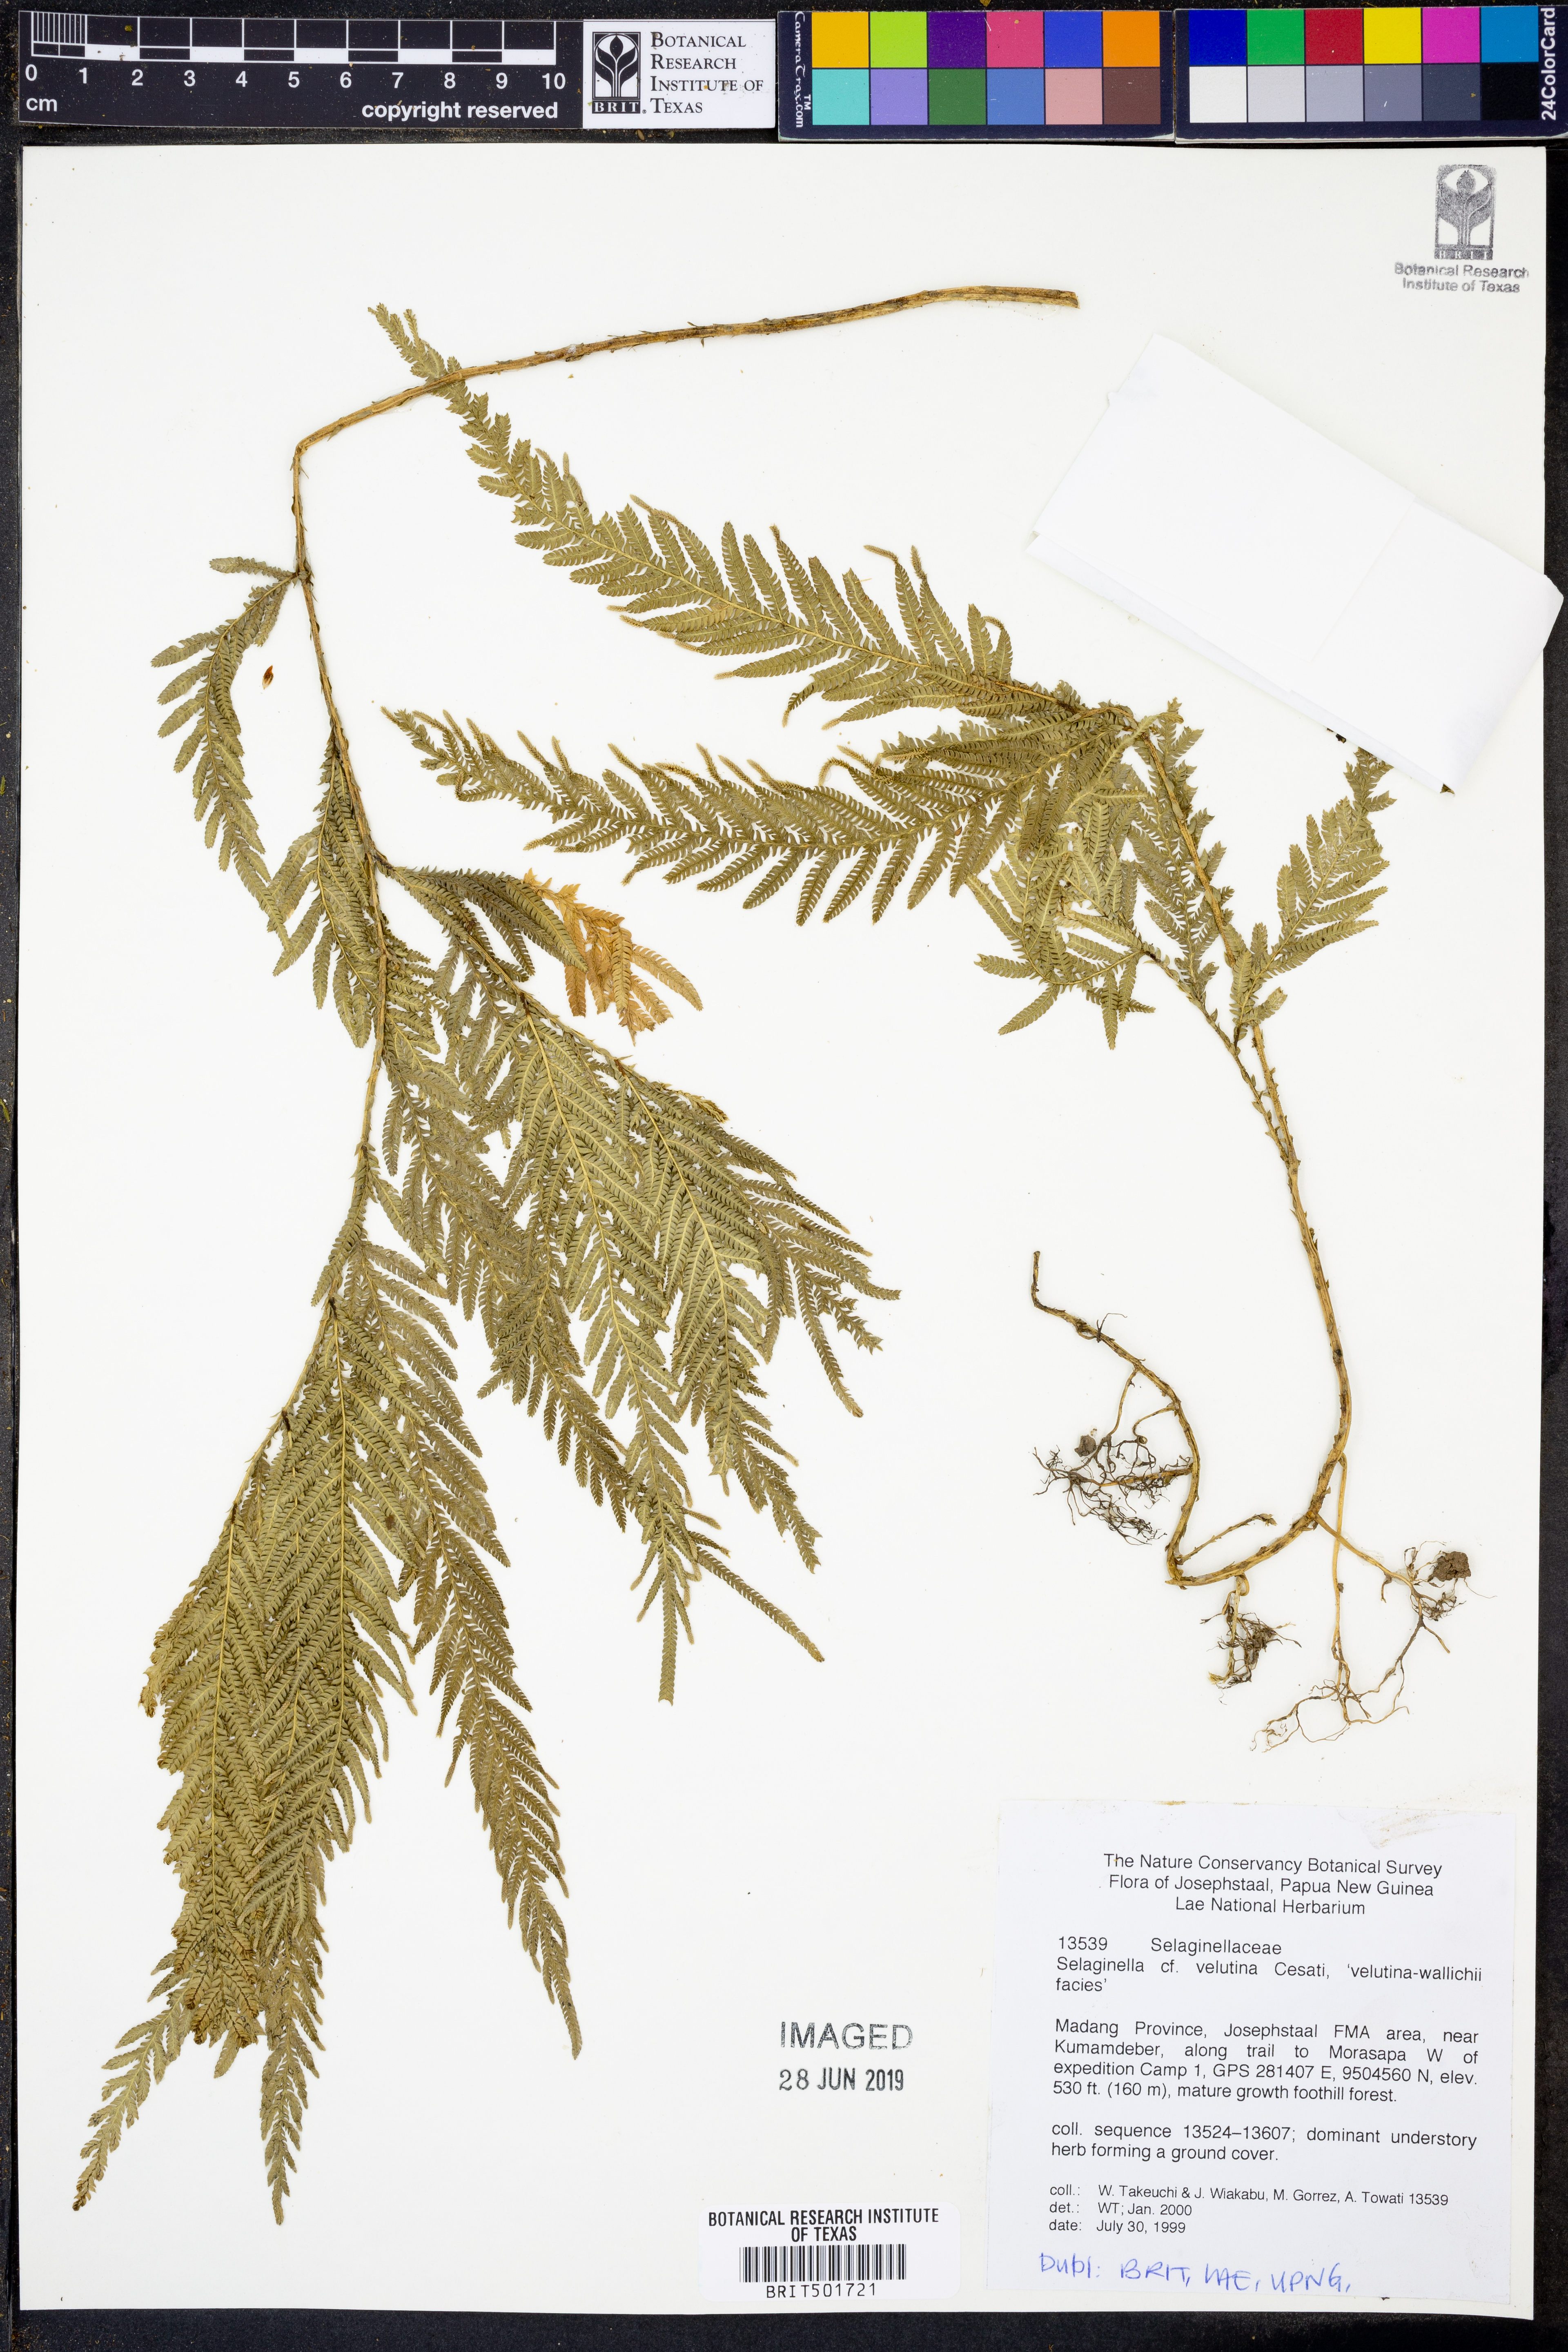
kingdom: Plantae
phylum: Tracheophyta
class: Lycopodiopsida
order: Selaginellales
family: Selaginellaceae
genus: Selaginella
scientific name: Selaginella velutina
